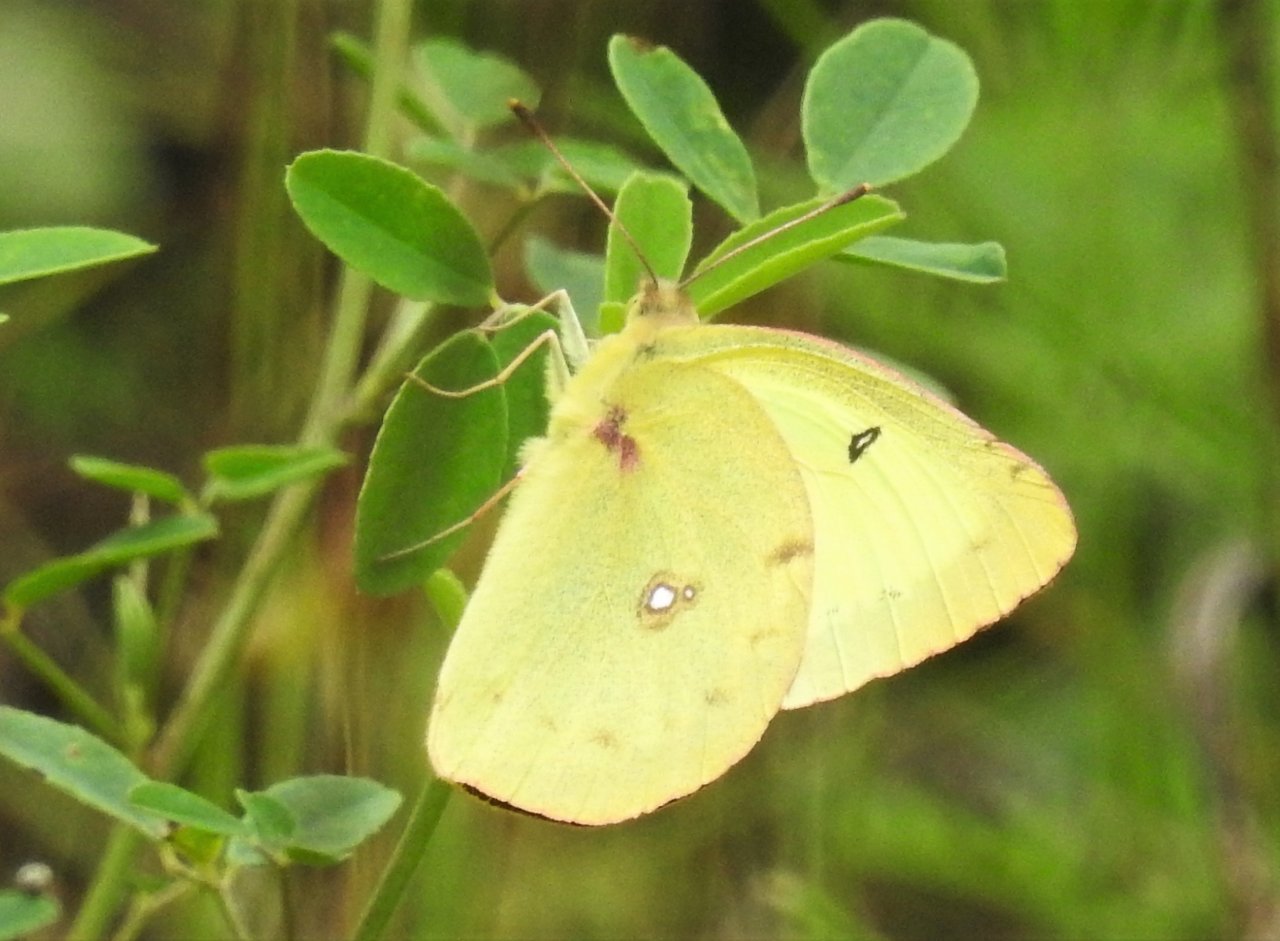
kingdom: Animalia
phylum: Arthropoda
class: Insecta
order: Lepidoptera
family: Pieridae
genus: Colias
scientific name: Colias philodice
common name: Clouded Sulphur
